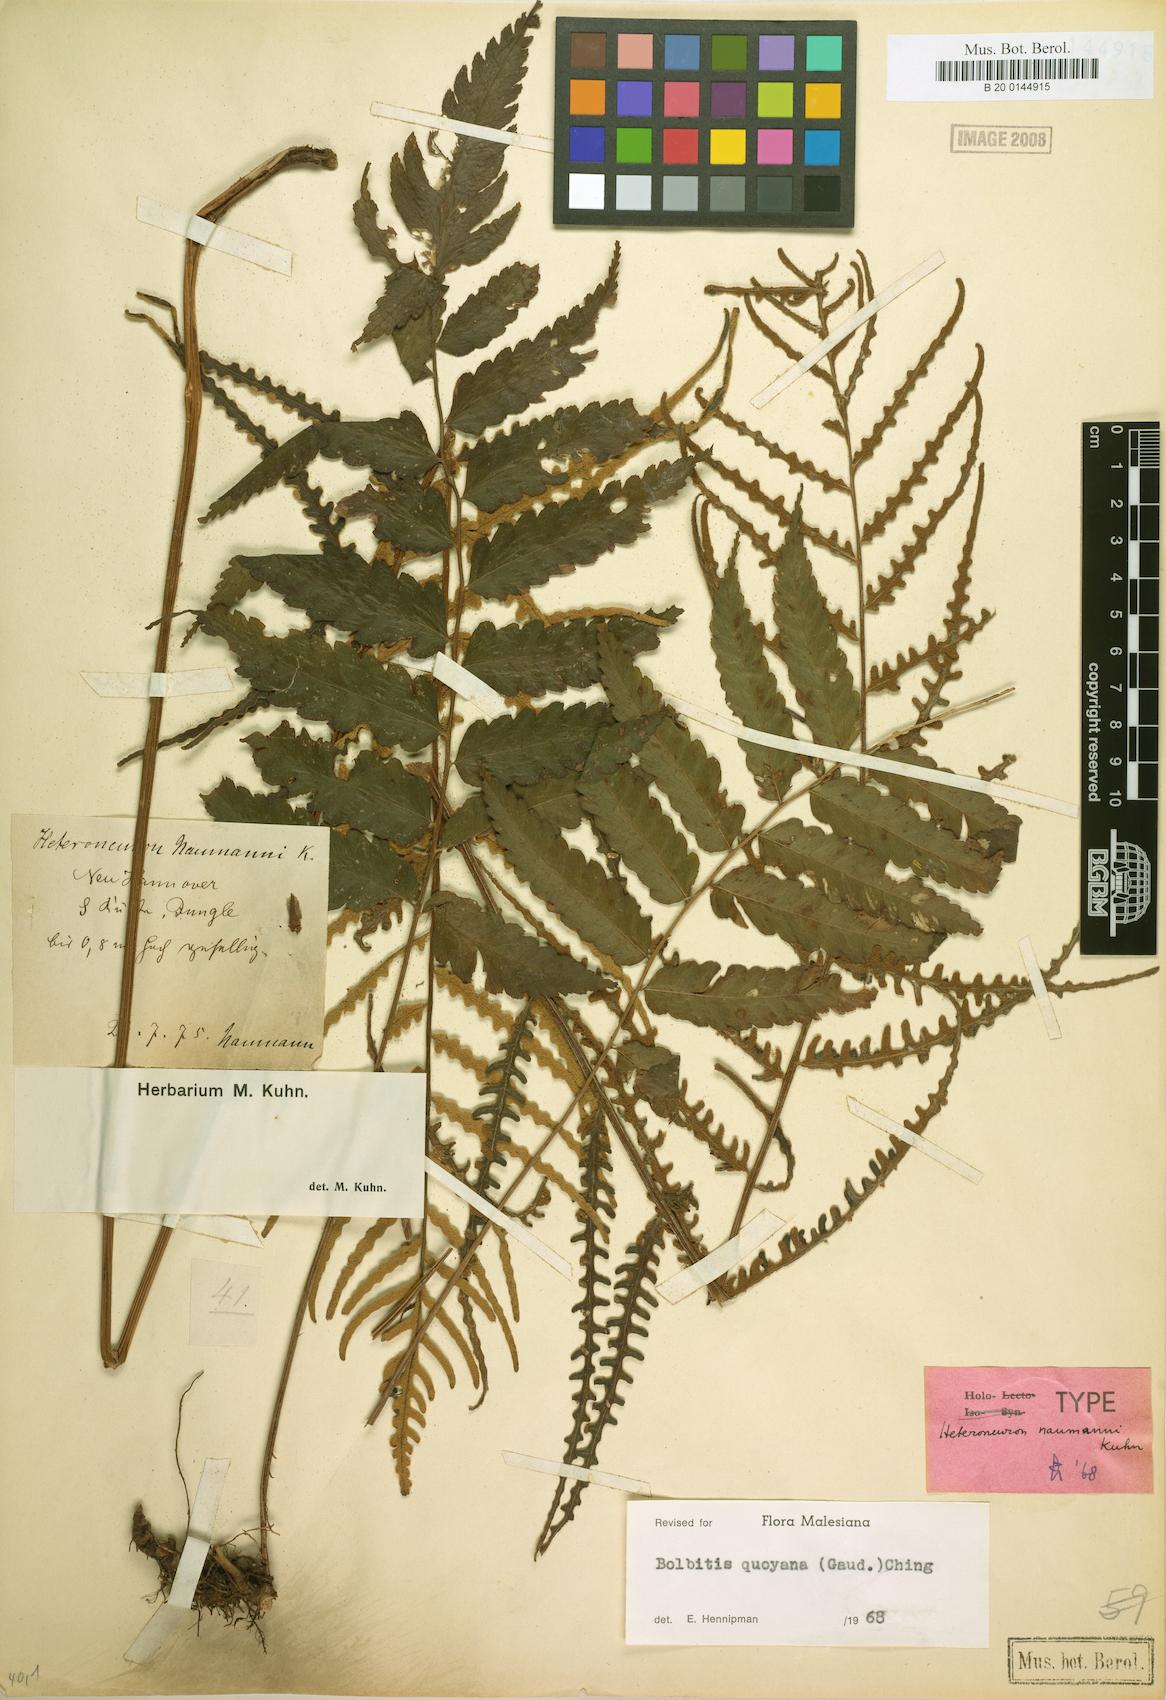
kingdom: Plantae
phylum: Tracheophyta
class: Polypodiopsida
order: Polypodiales
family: Dryopteridaceae
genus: Bolbitis
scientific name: Bolbitis quoyana
